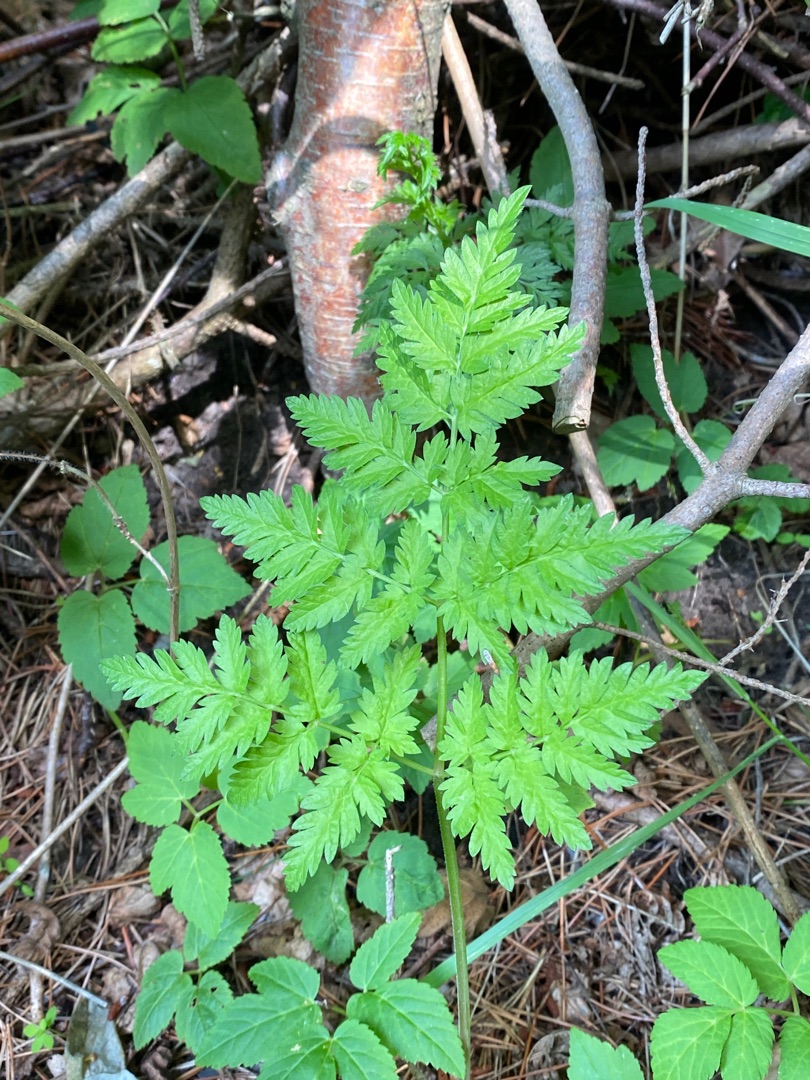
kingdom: Plantae
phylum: Tracheophyta
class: Magnoliopsida
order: Apiales
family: Apiaceae
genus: Anthriscus
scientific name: Anthriscus sylvestris
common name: Vild kørvel
